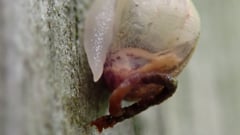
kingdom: Animalia
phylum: Mollusca
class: Gastropoda
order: Stylommatophora
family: Helicidae
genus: Cornu
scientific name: Cornu aspersum
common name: Brown garden snail
